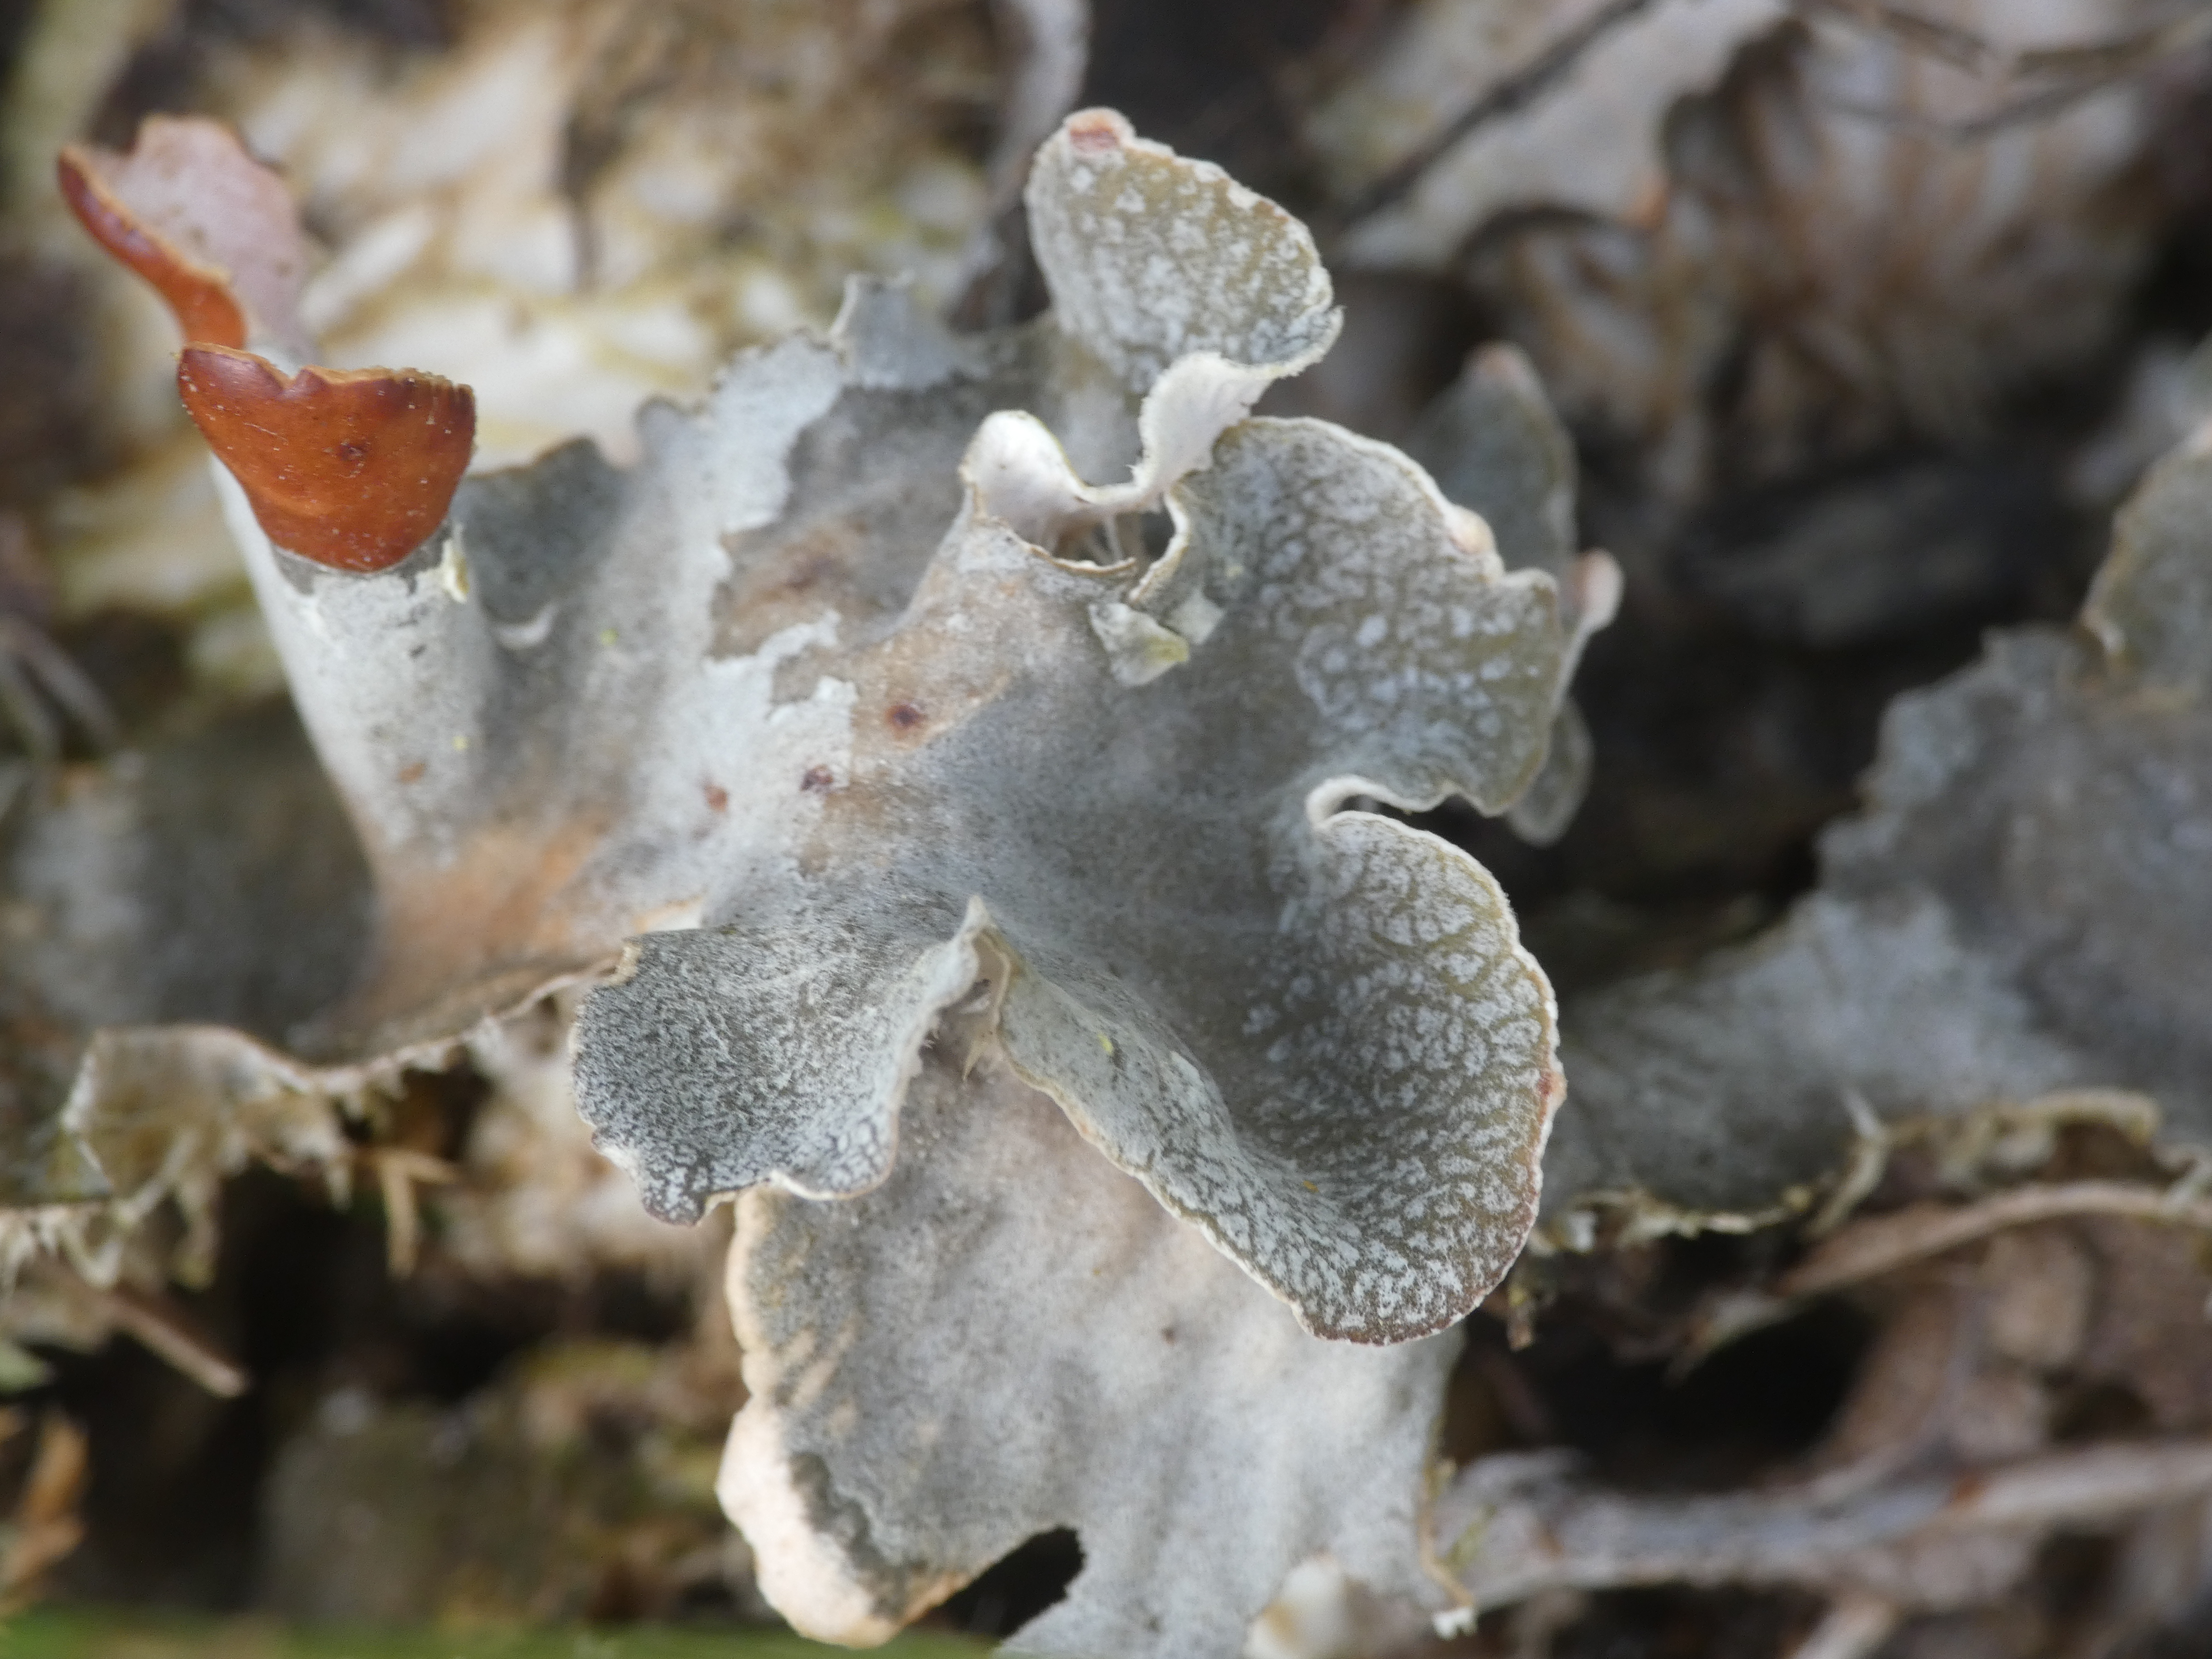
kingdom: Fungi
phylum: Ascomycota
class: Lecanoromycetes
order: Peltigerales
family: Peltigeraceae
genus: Peltigera
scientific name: Peltigera canina
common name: Hunde-skjoldlav
